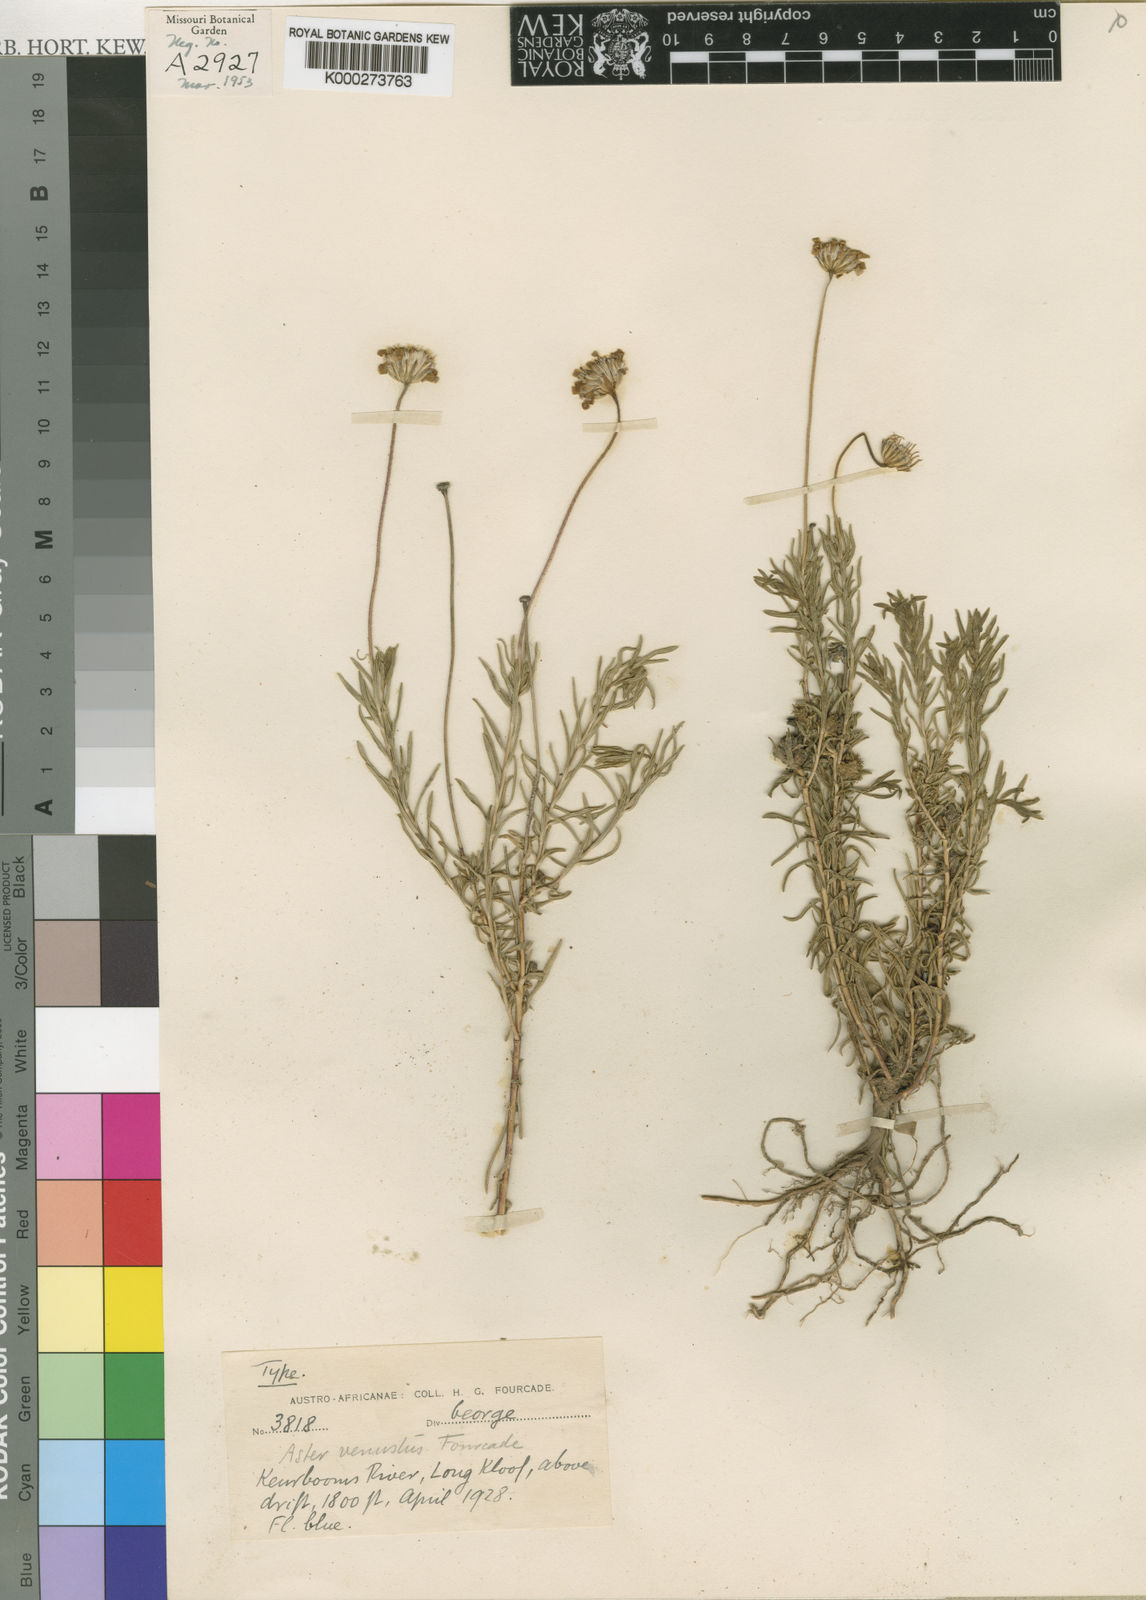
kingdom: Plantae
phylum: Tracheophyta
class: Magnoliopsida
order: Asterales
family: Asteraceae
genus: Felicia
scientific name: Felicia linifolia
